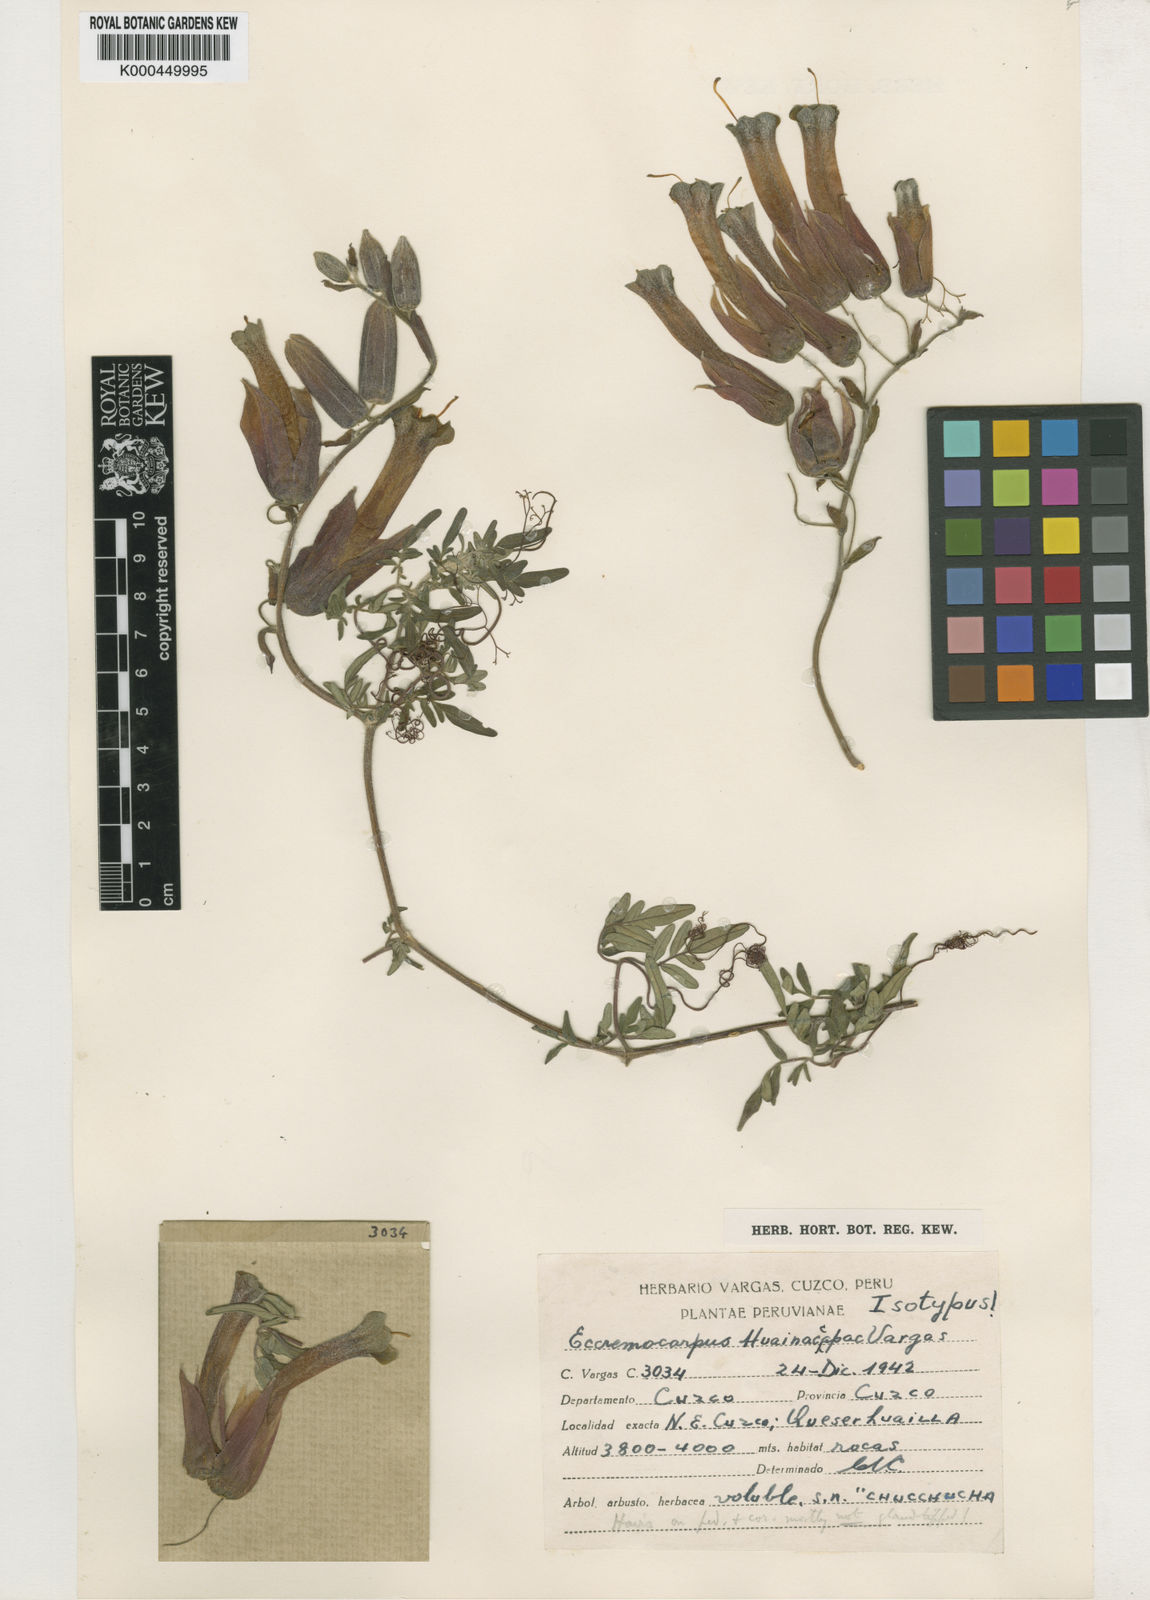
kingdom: Plantae
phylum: Tracheophyta
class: Magnoliopsida
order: Lamiales
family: Bignoniaceae
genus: Eccremocarpus
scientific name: Eccremocarpus
